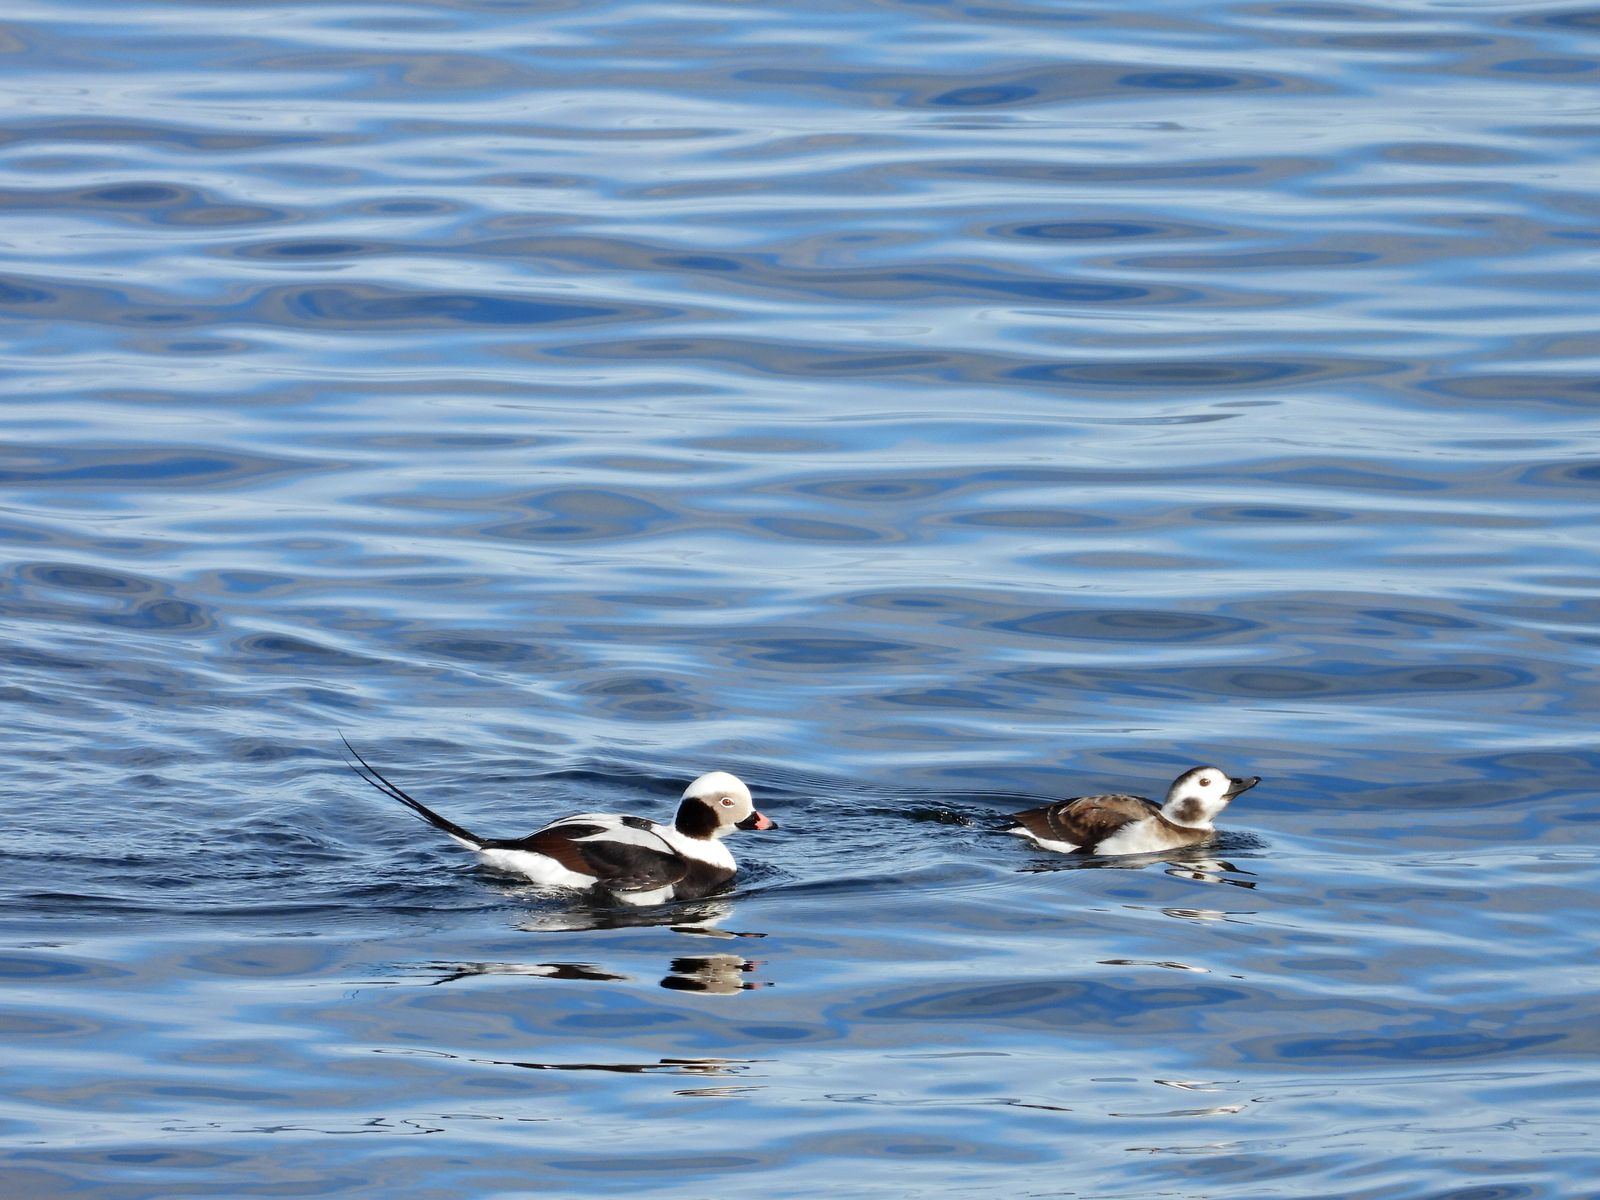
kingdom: Animalia
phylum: Chordata
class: Aves
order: Anseriformes
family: Anatidae
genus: Clangula
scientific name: Clangula hyemalis
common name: Long-tailed duck
